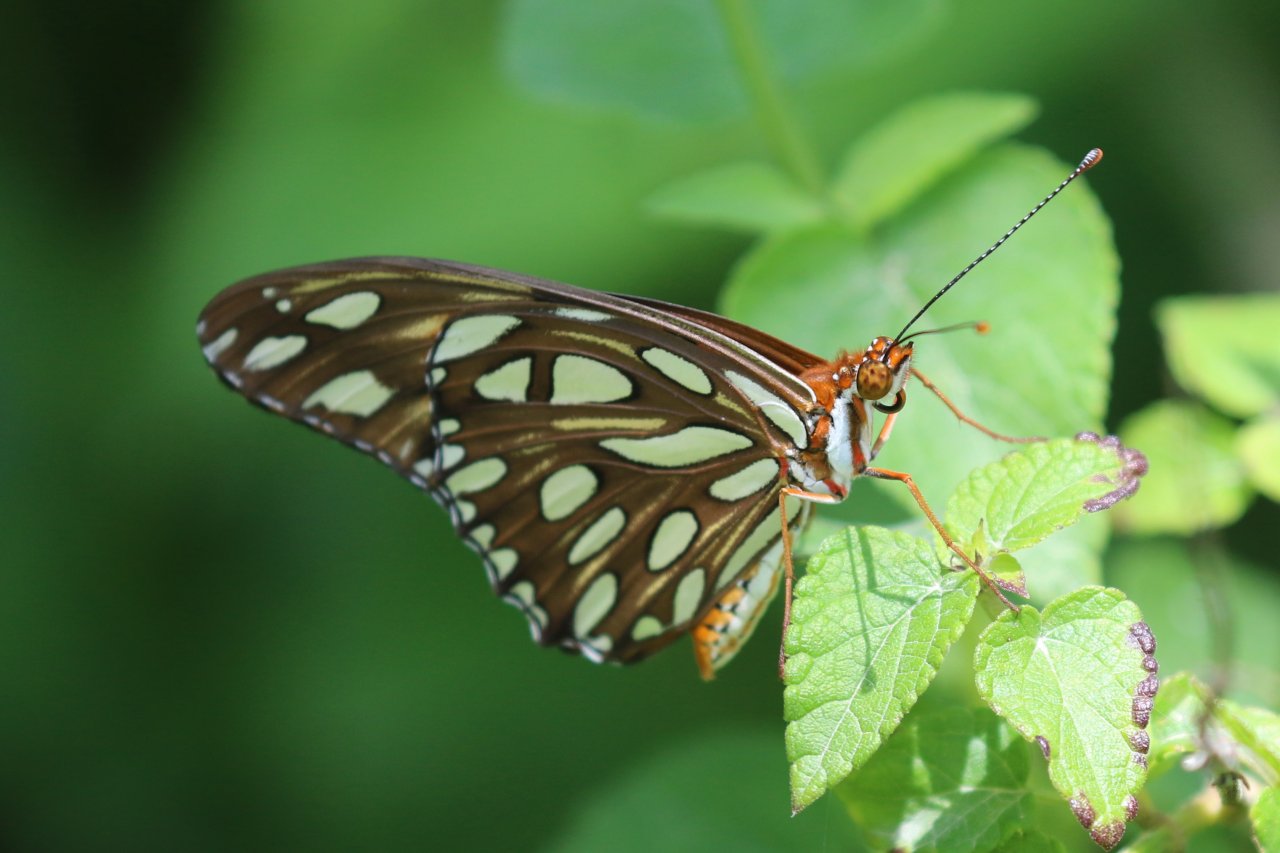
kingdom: Animalia
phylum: Arthropoda
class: Insecta
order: Lepidoptera
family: Nymphalidae
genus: Dione
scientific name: Dione vanillae
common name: Gulf Fritillary
